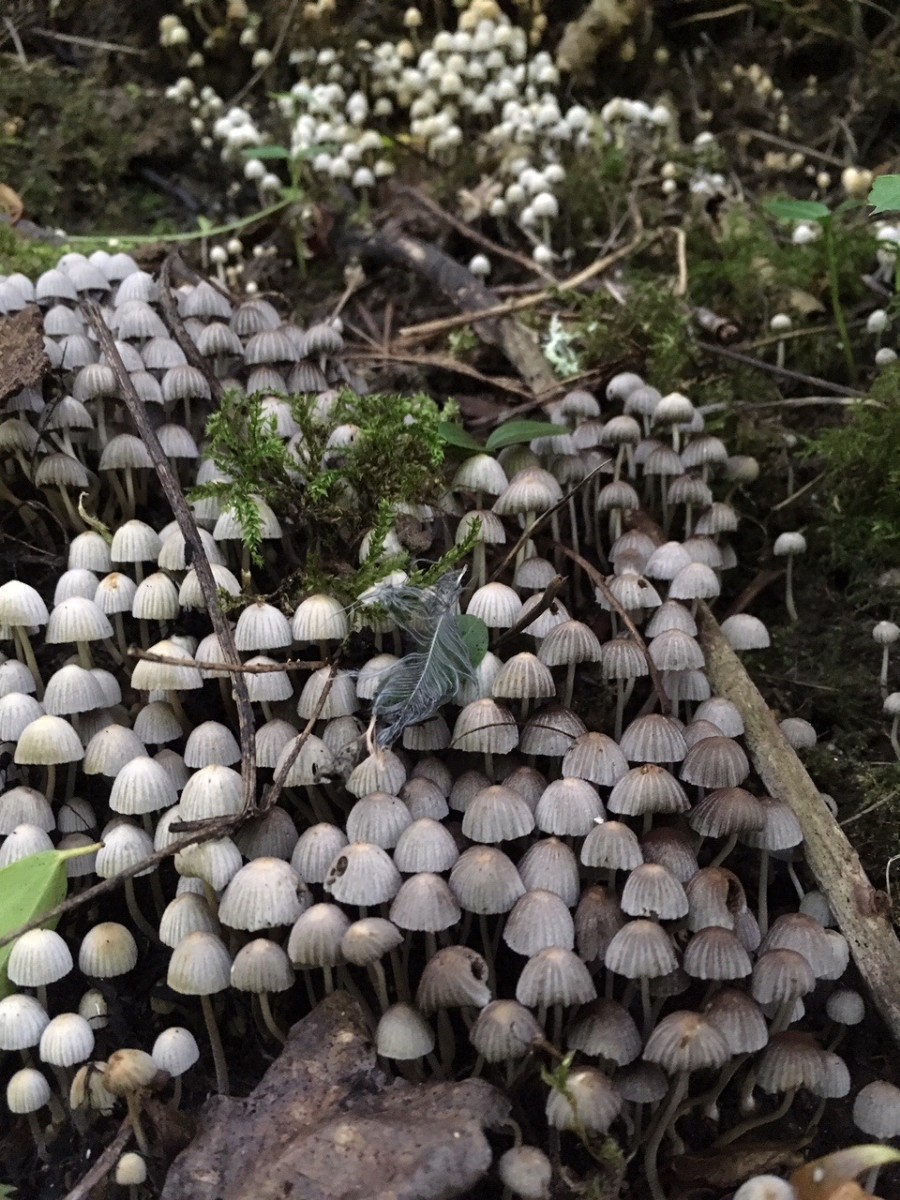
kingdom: Fungi
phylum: Basidiomycota
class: Agaricomycetes
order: Agaricales
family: Psathyrellaceae
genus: Coprinellus
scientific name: Coprinellus disseminatus
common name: bredsået blækhat
